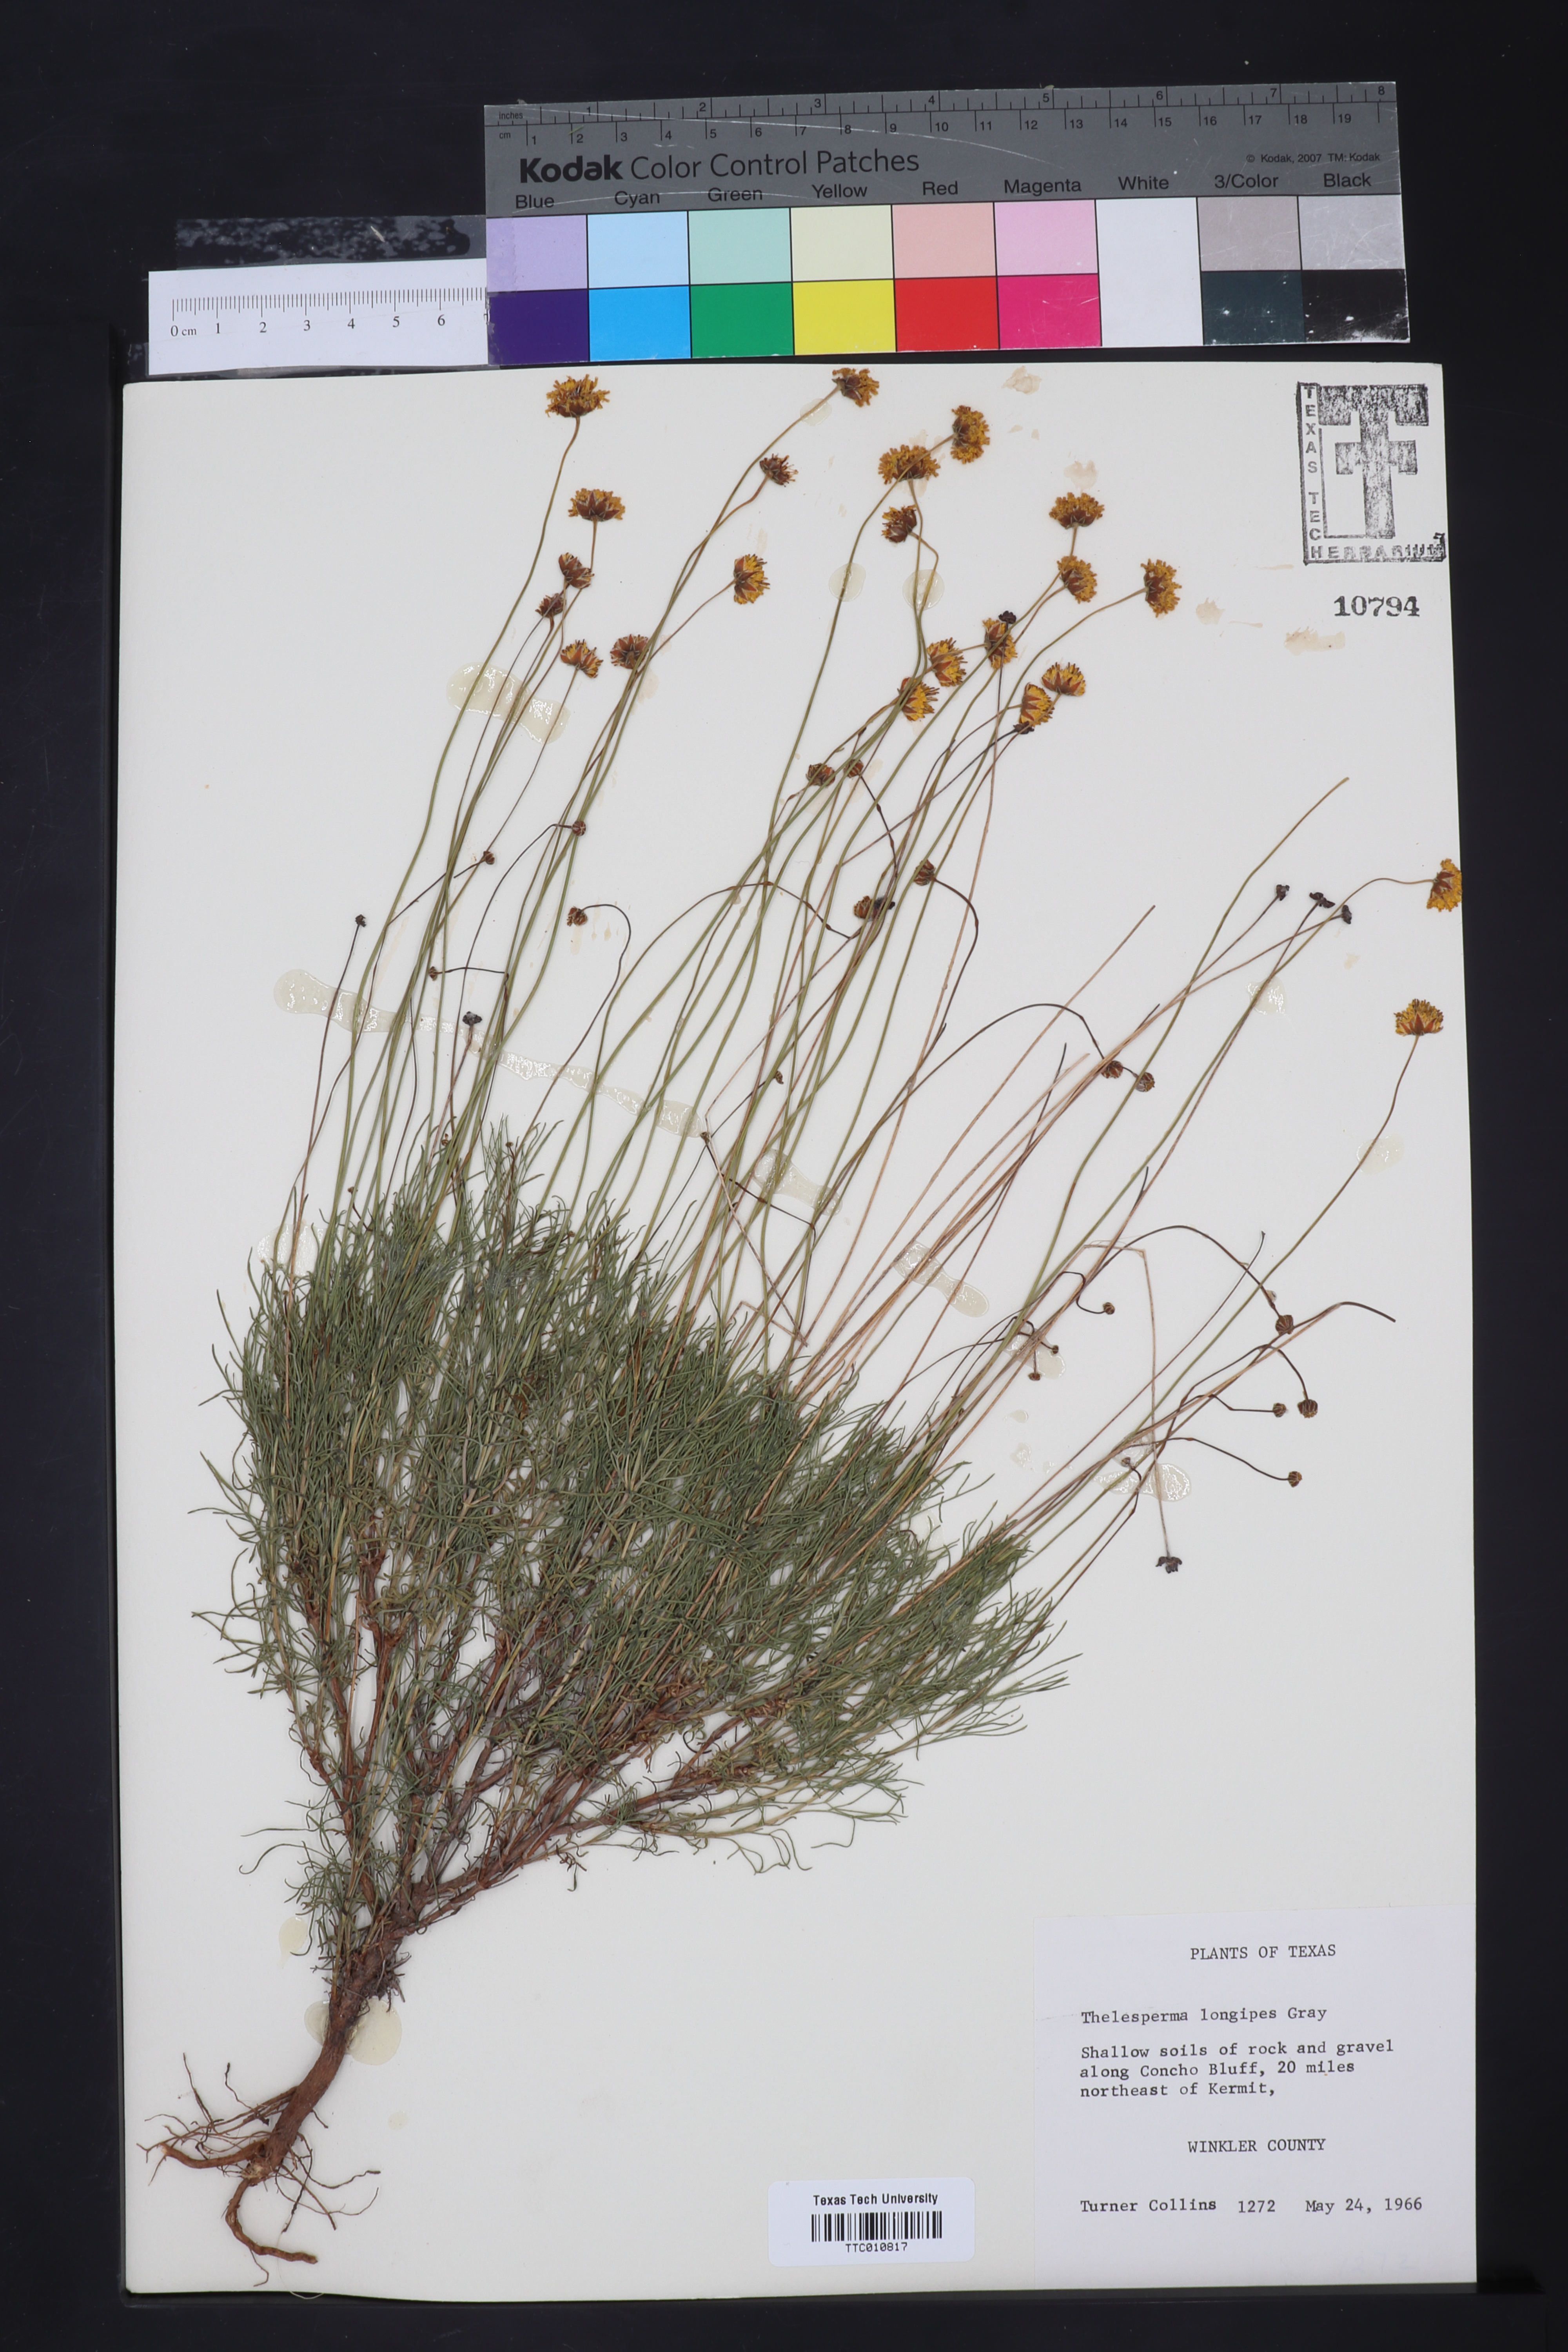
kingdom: Plantae
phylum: Tracheophyta
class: Magnoliopsida
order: Asterales
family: Asteraceae
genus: Thelesperma
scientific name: Thelesperma longipes
